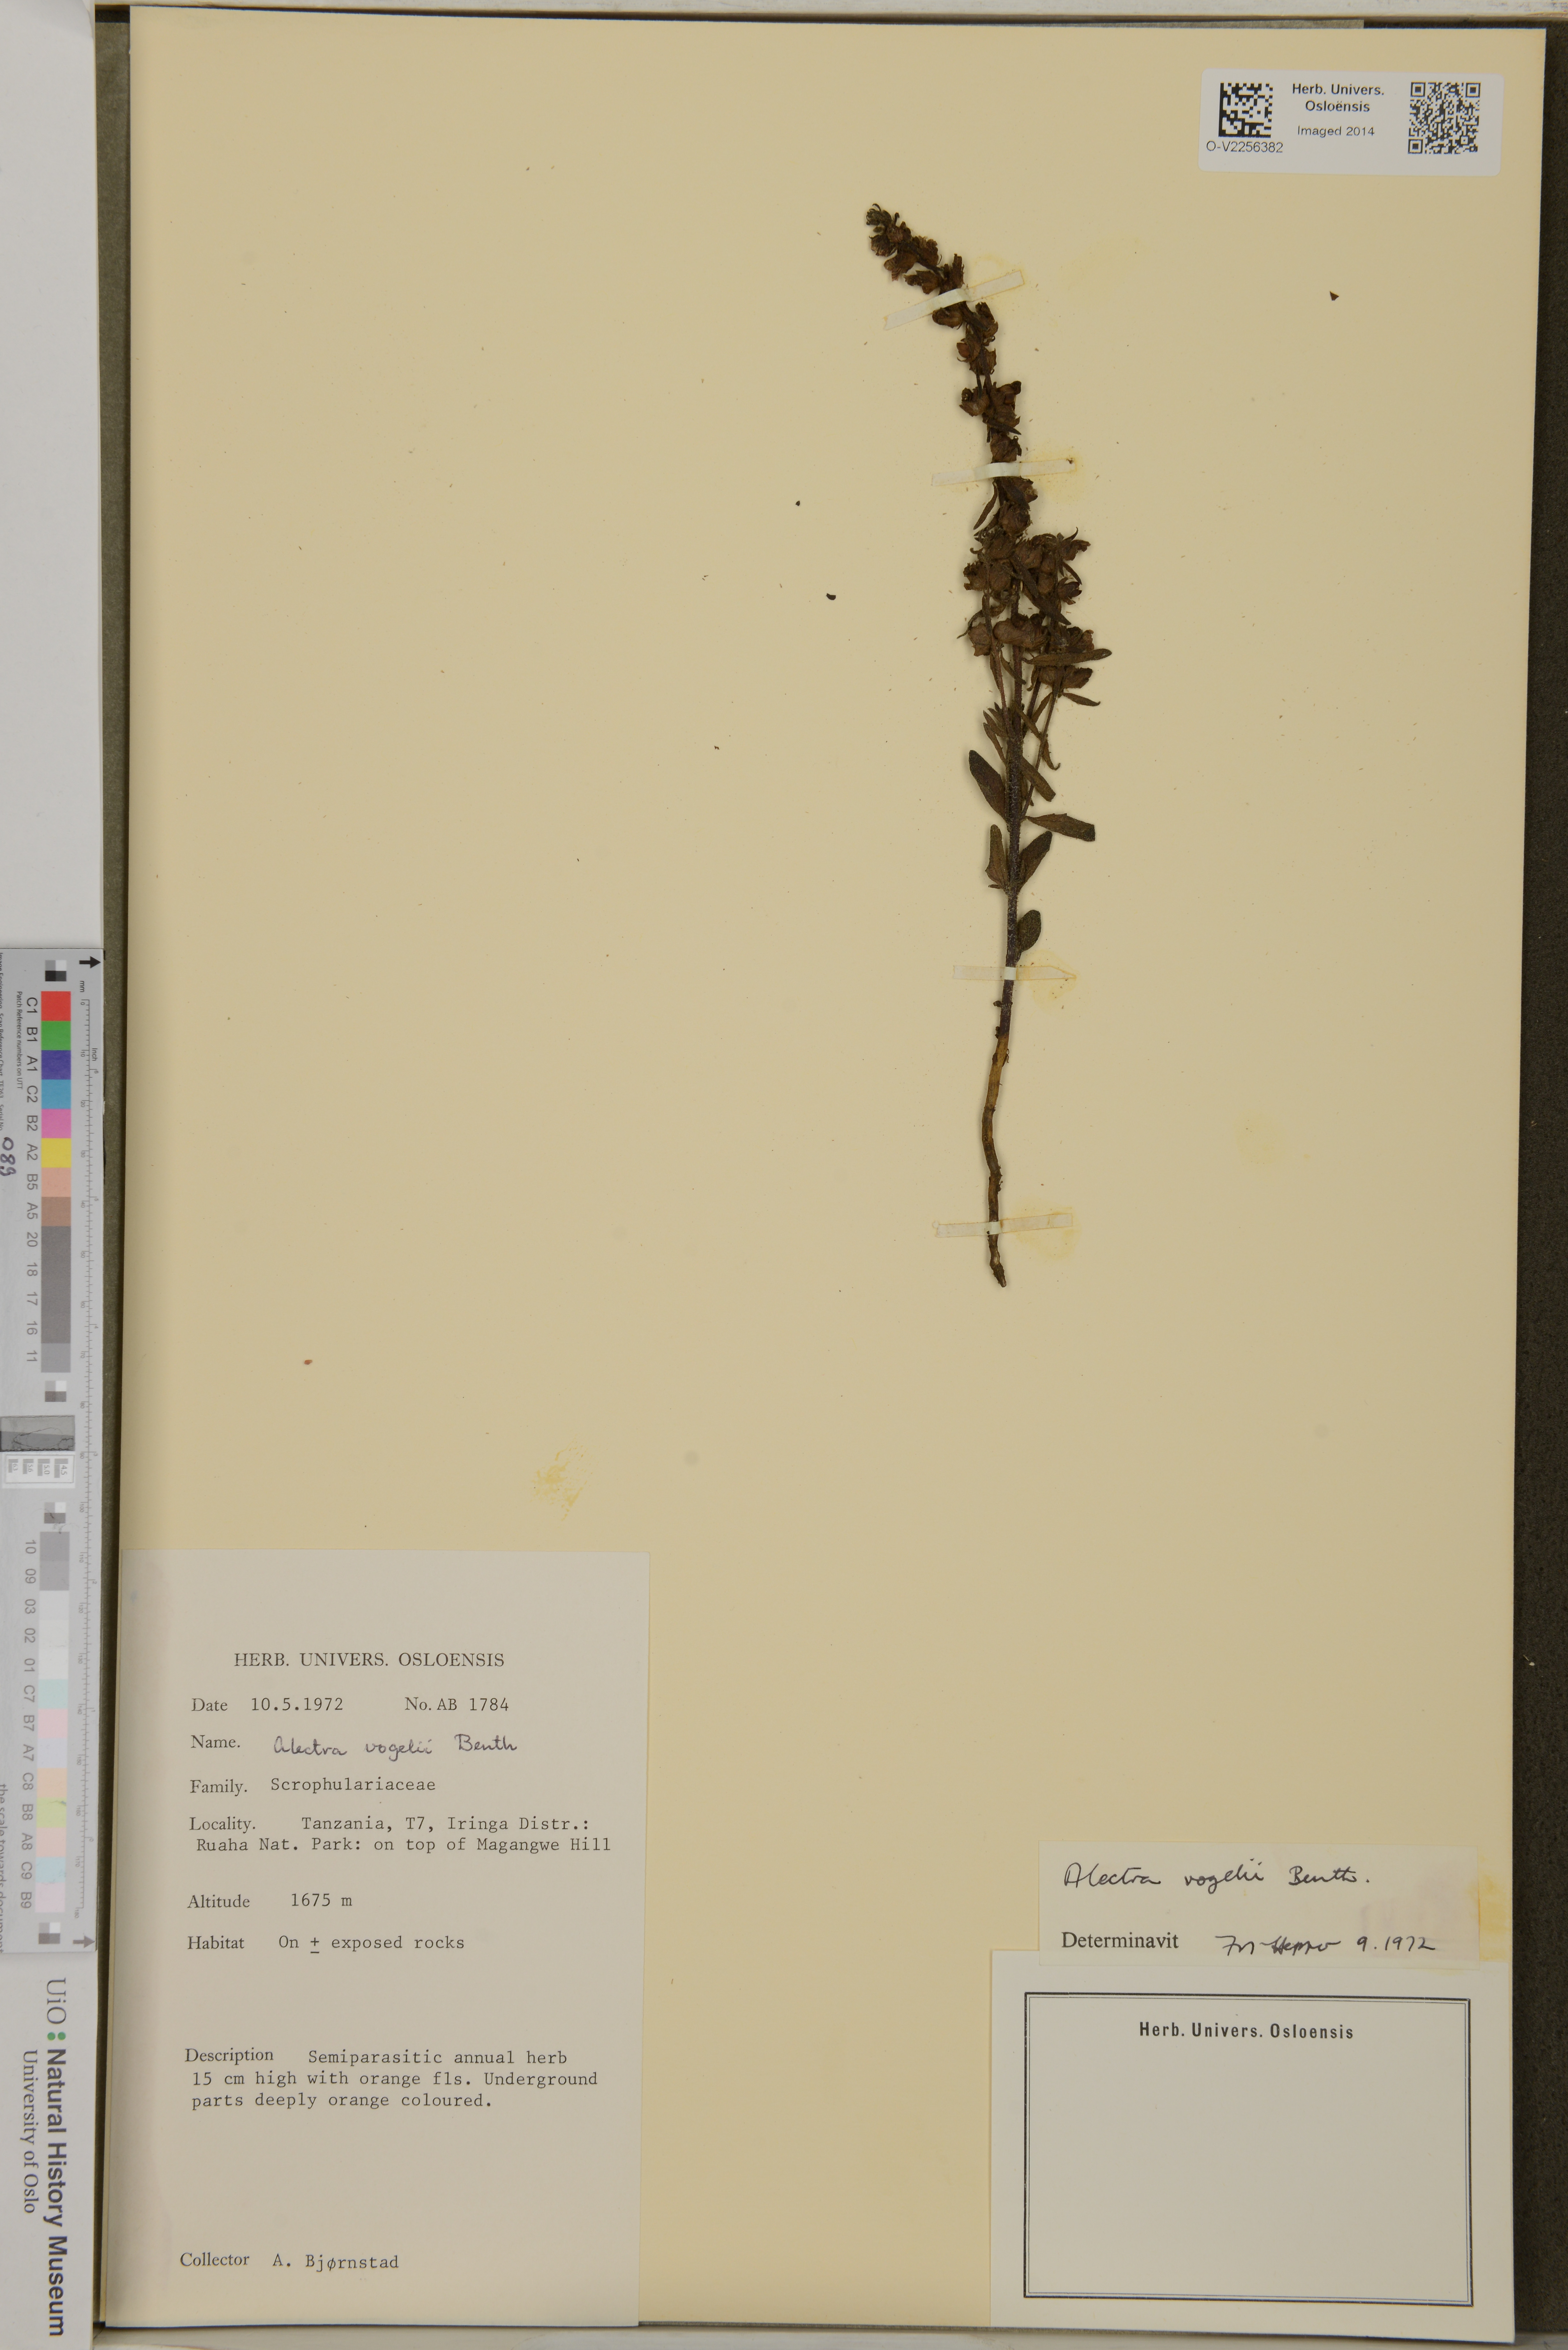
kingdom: Plantae
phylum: Tracheophyta
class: Magnoliopsida
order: Lamiales
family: Orobanchaceae
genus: Alectra
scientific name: Alectra vogelii
